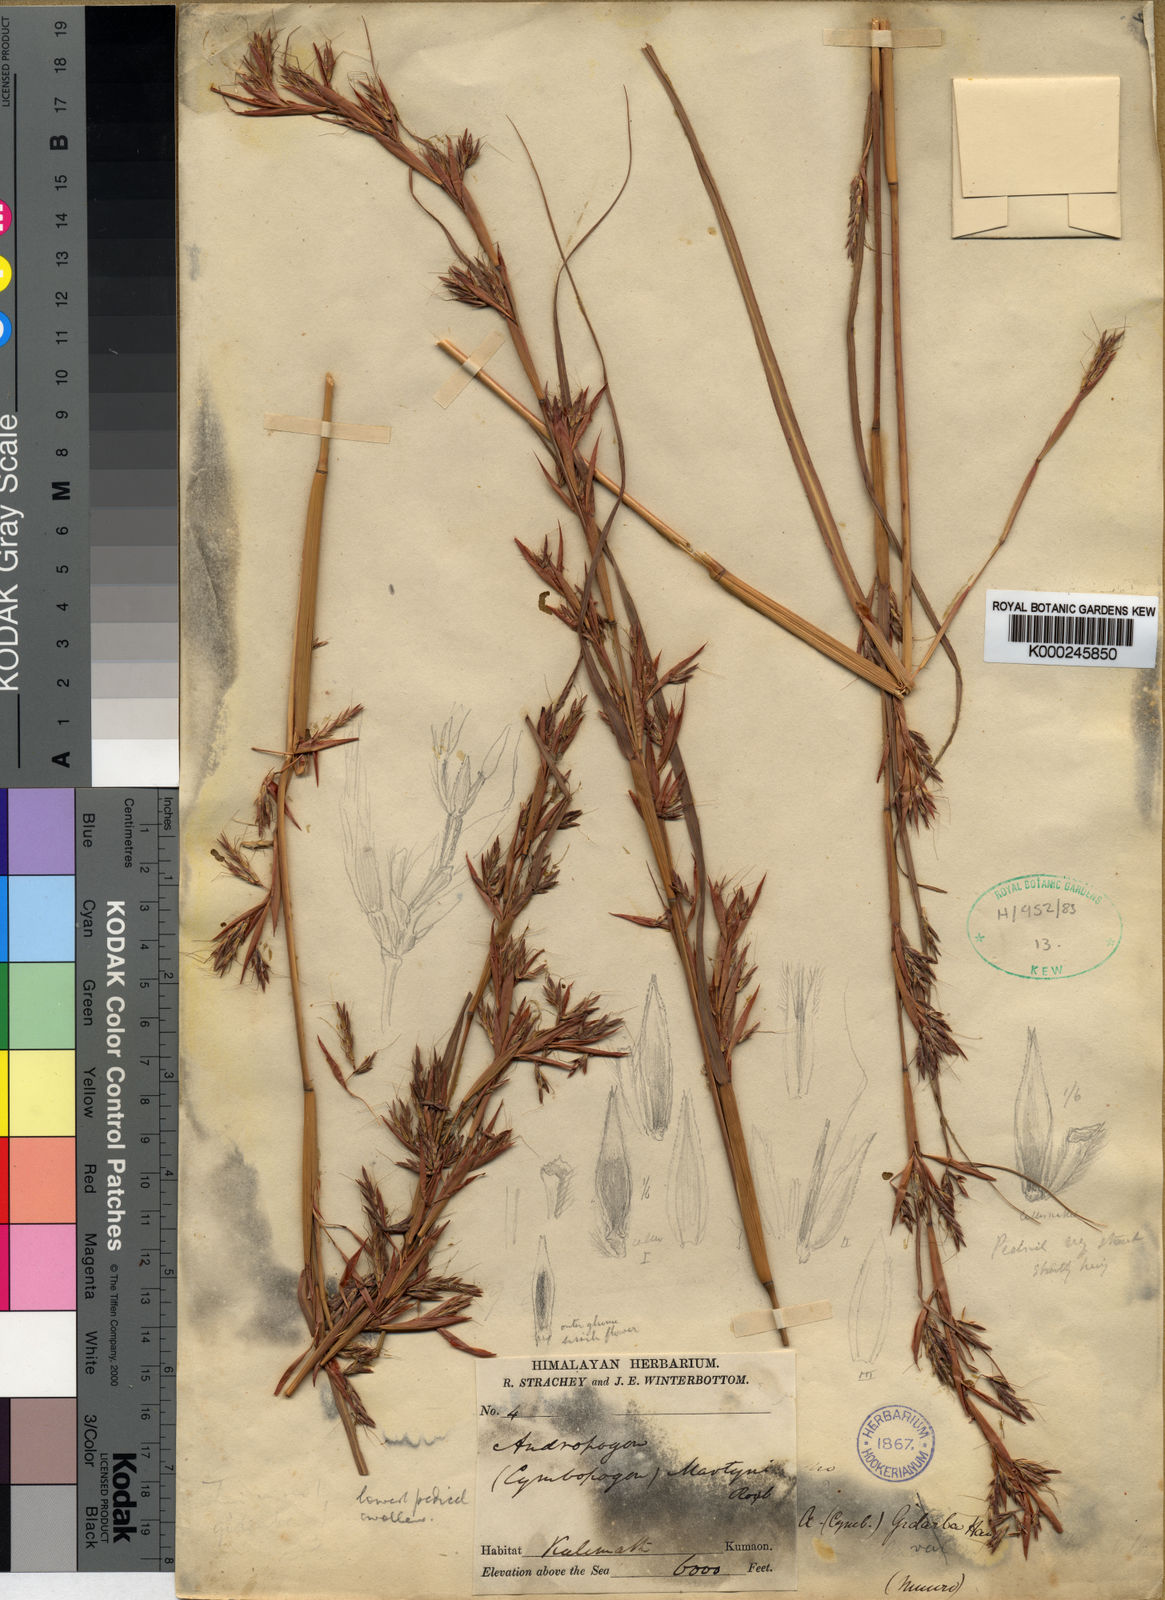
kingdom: Plantae
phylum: Tracheophyta
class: Liliopsida
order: Poales
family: Poaceae
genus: Cymbopogon
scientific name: Cymbopogon pospischilii
